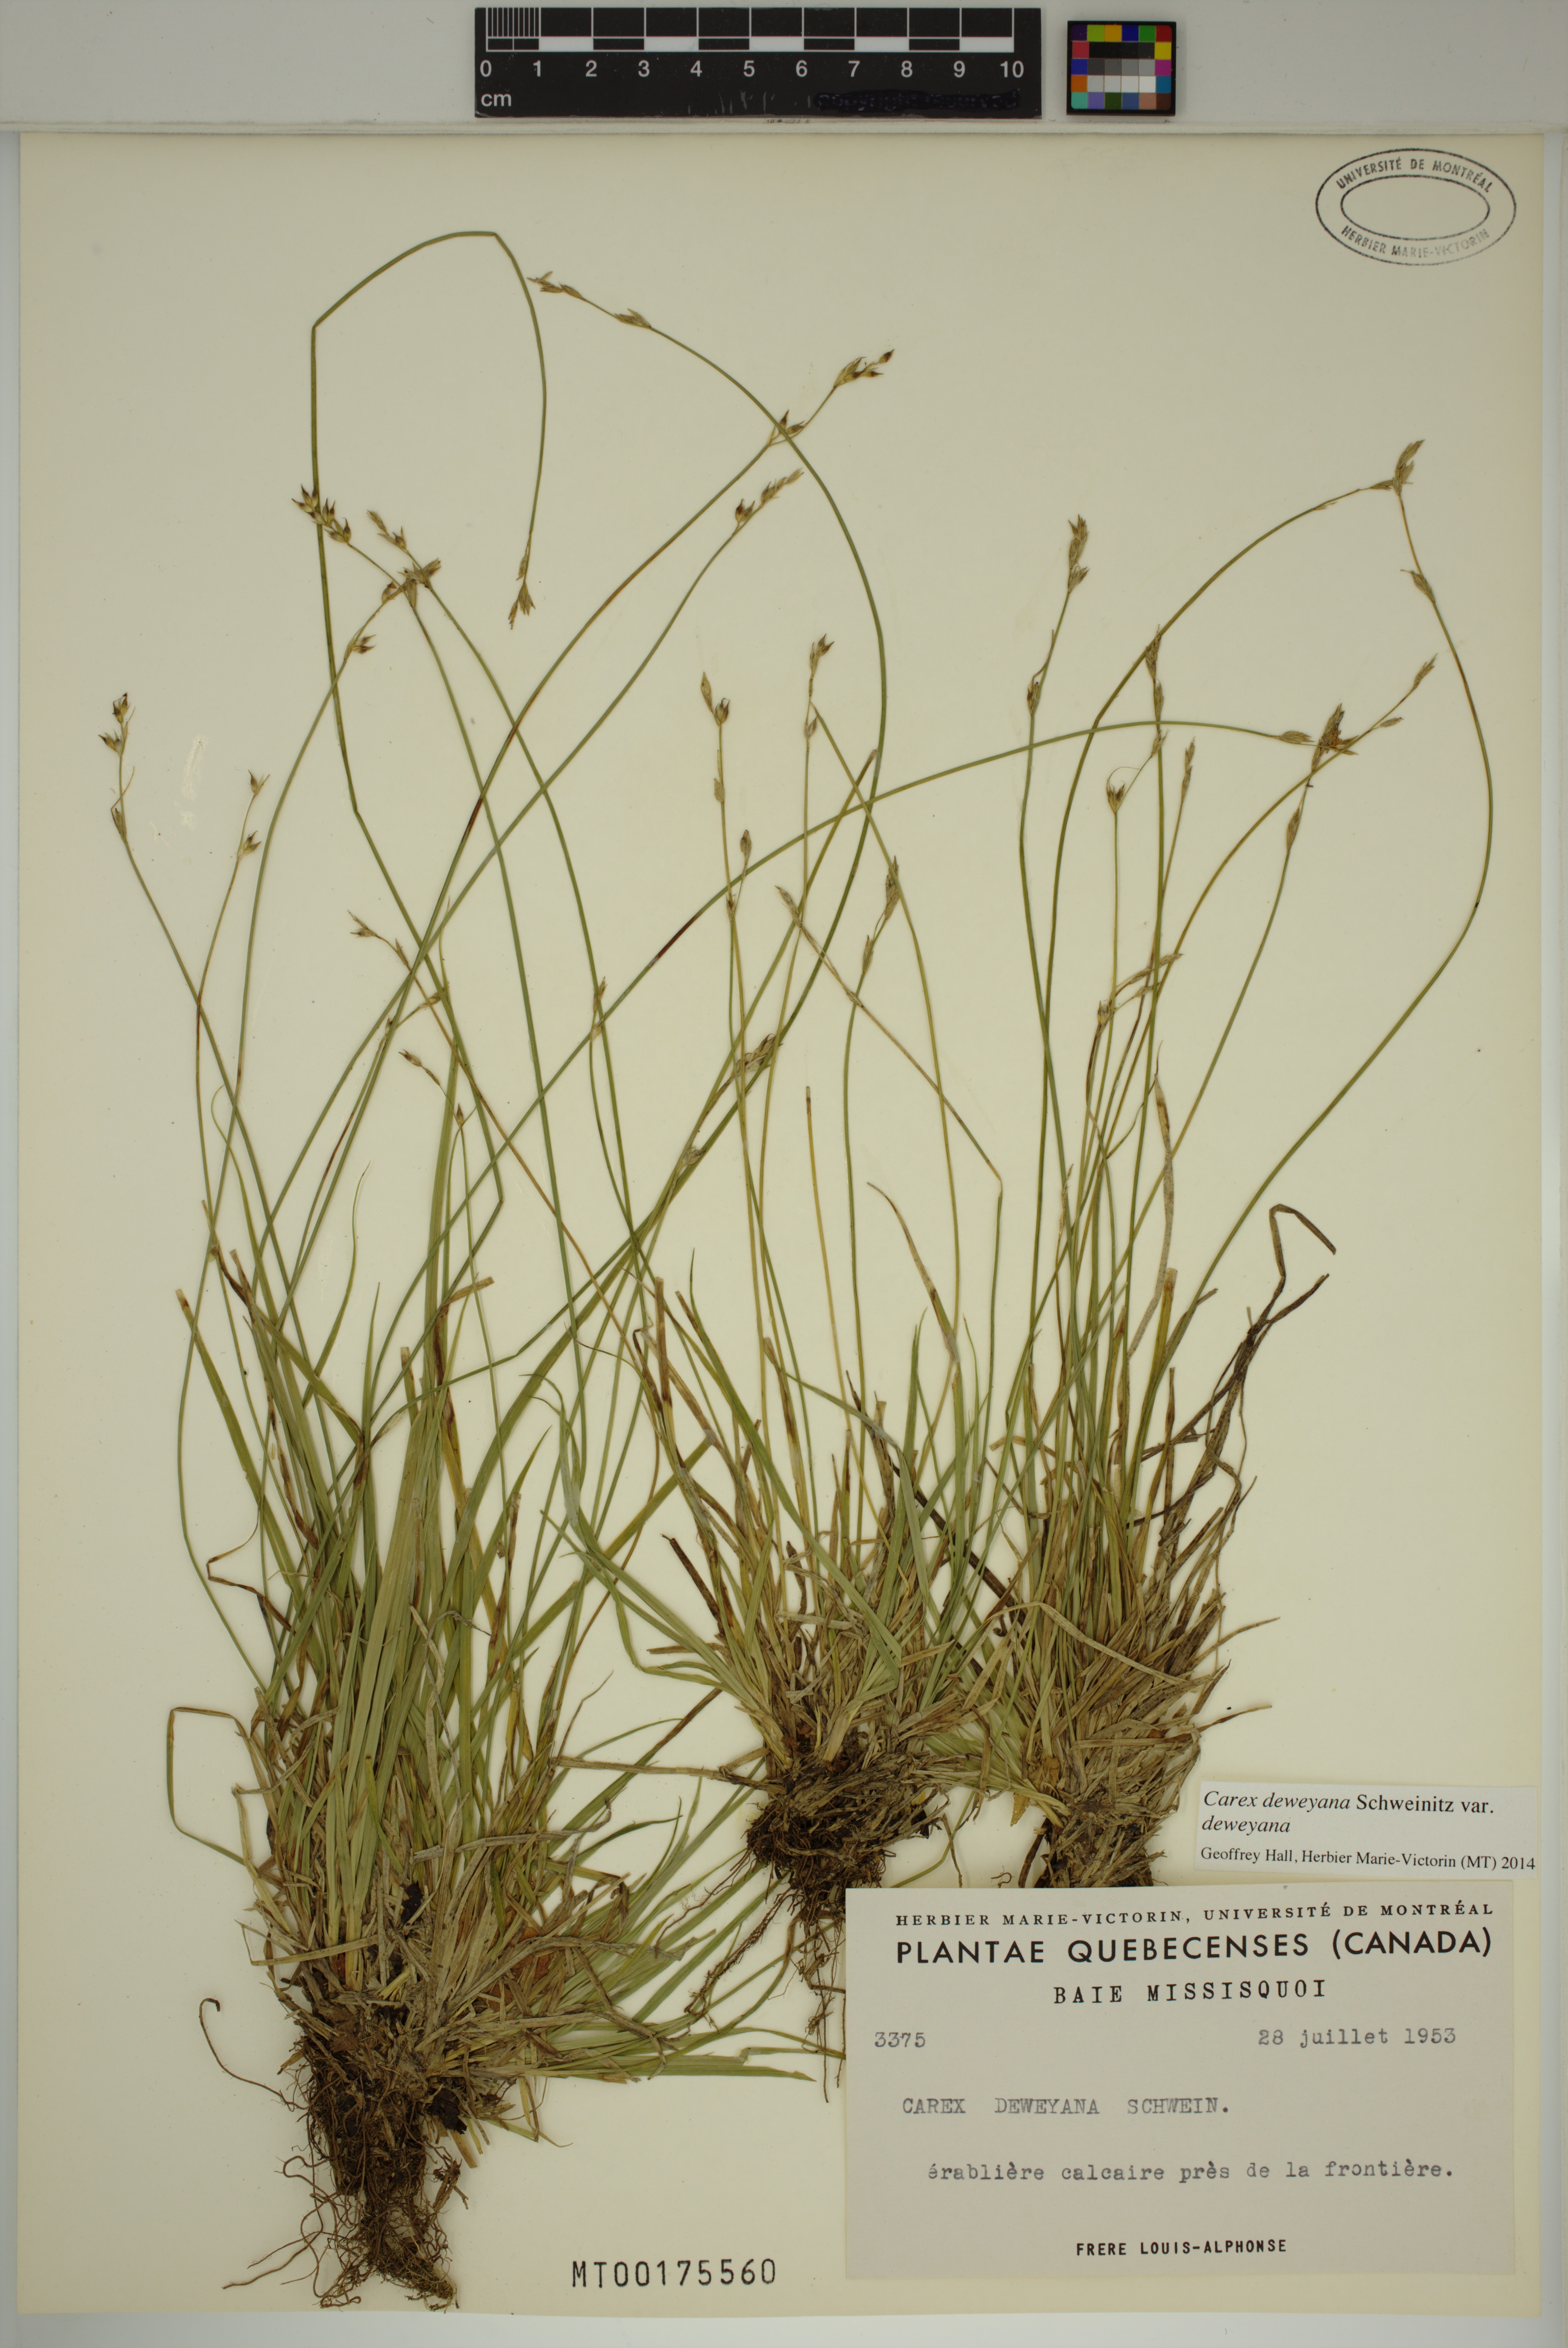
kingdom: Plantae
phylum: Tracheophyta
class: Liliopsida
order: Poales
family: Cyperaceae
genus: Carex
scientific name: Carex deweyana
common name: Dewey's sedge
